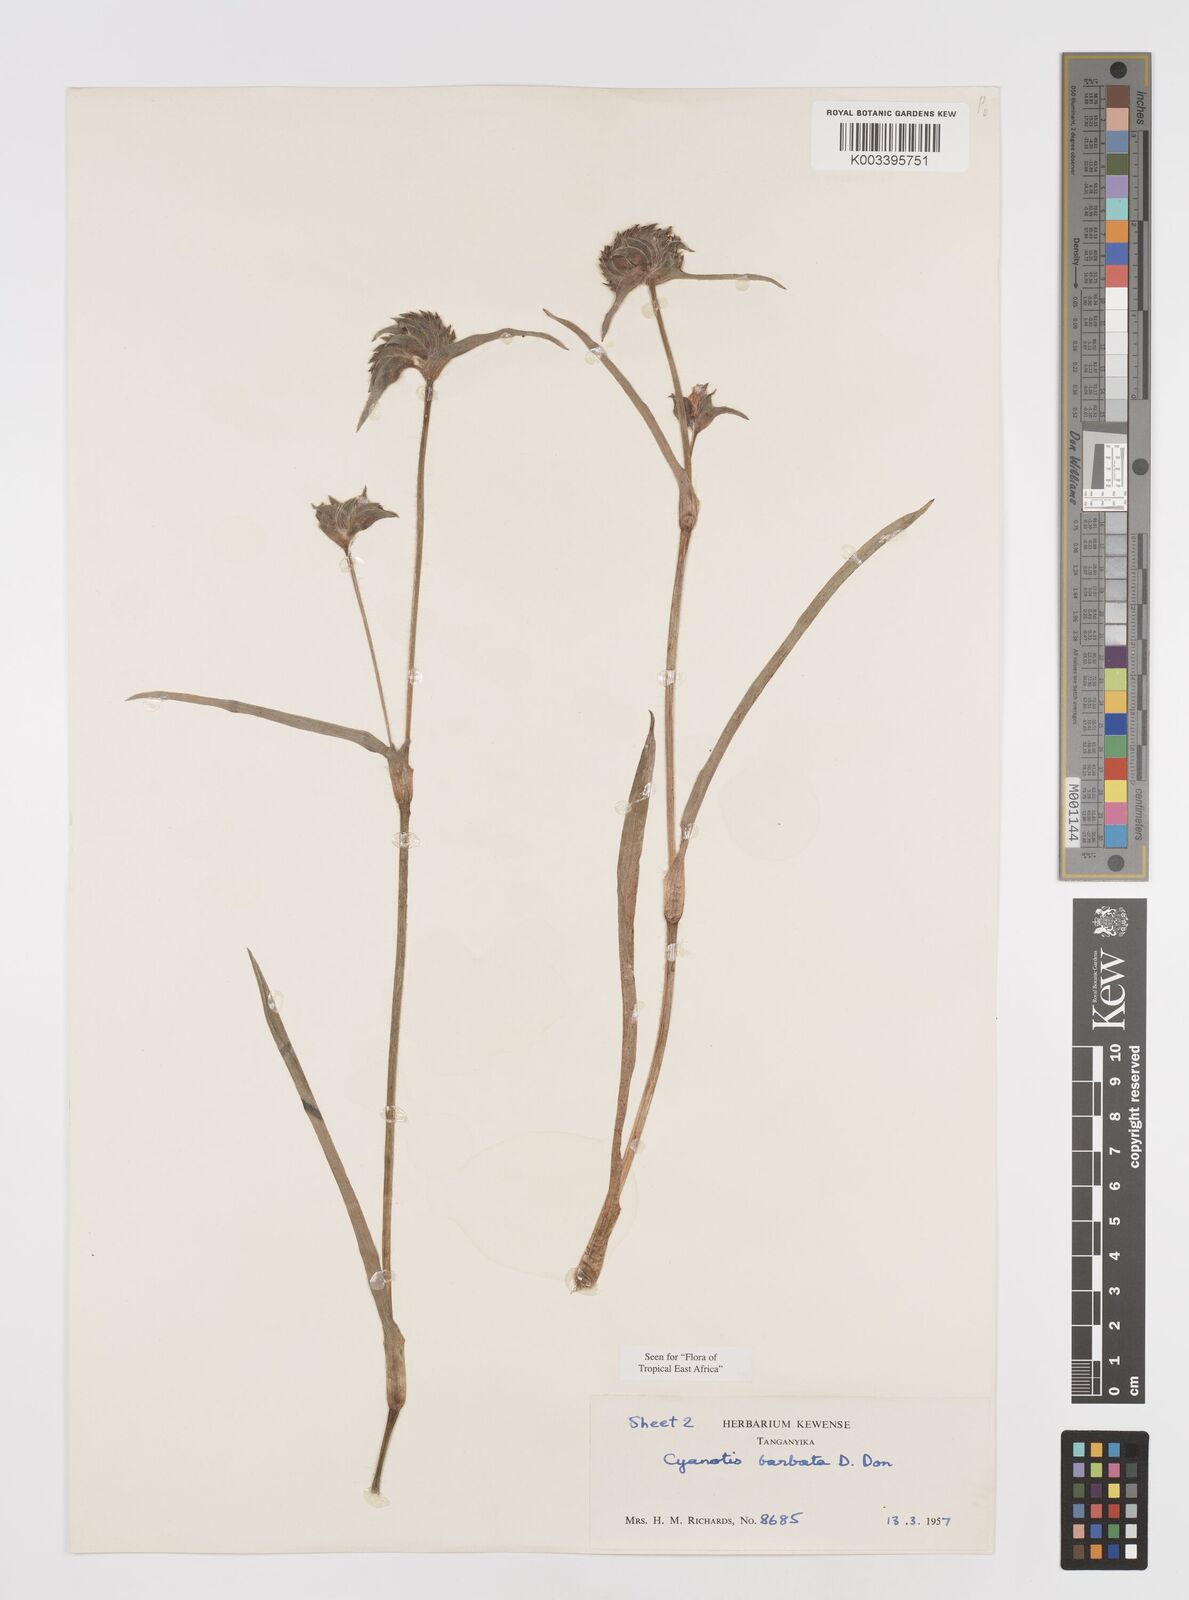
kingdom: Plantae
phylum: Tracheophyta
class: Liliopsida
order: Commelinales
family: Commelinaceae
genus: Cyanotis
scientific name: Cyanotis vaga
